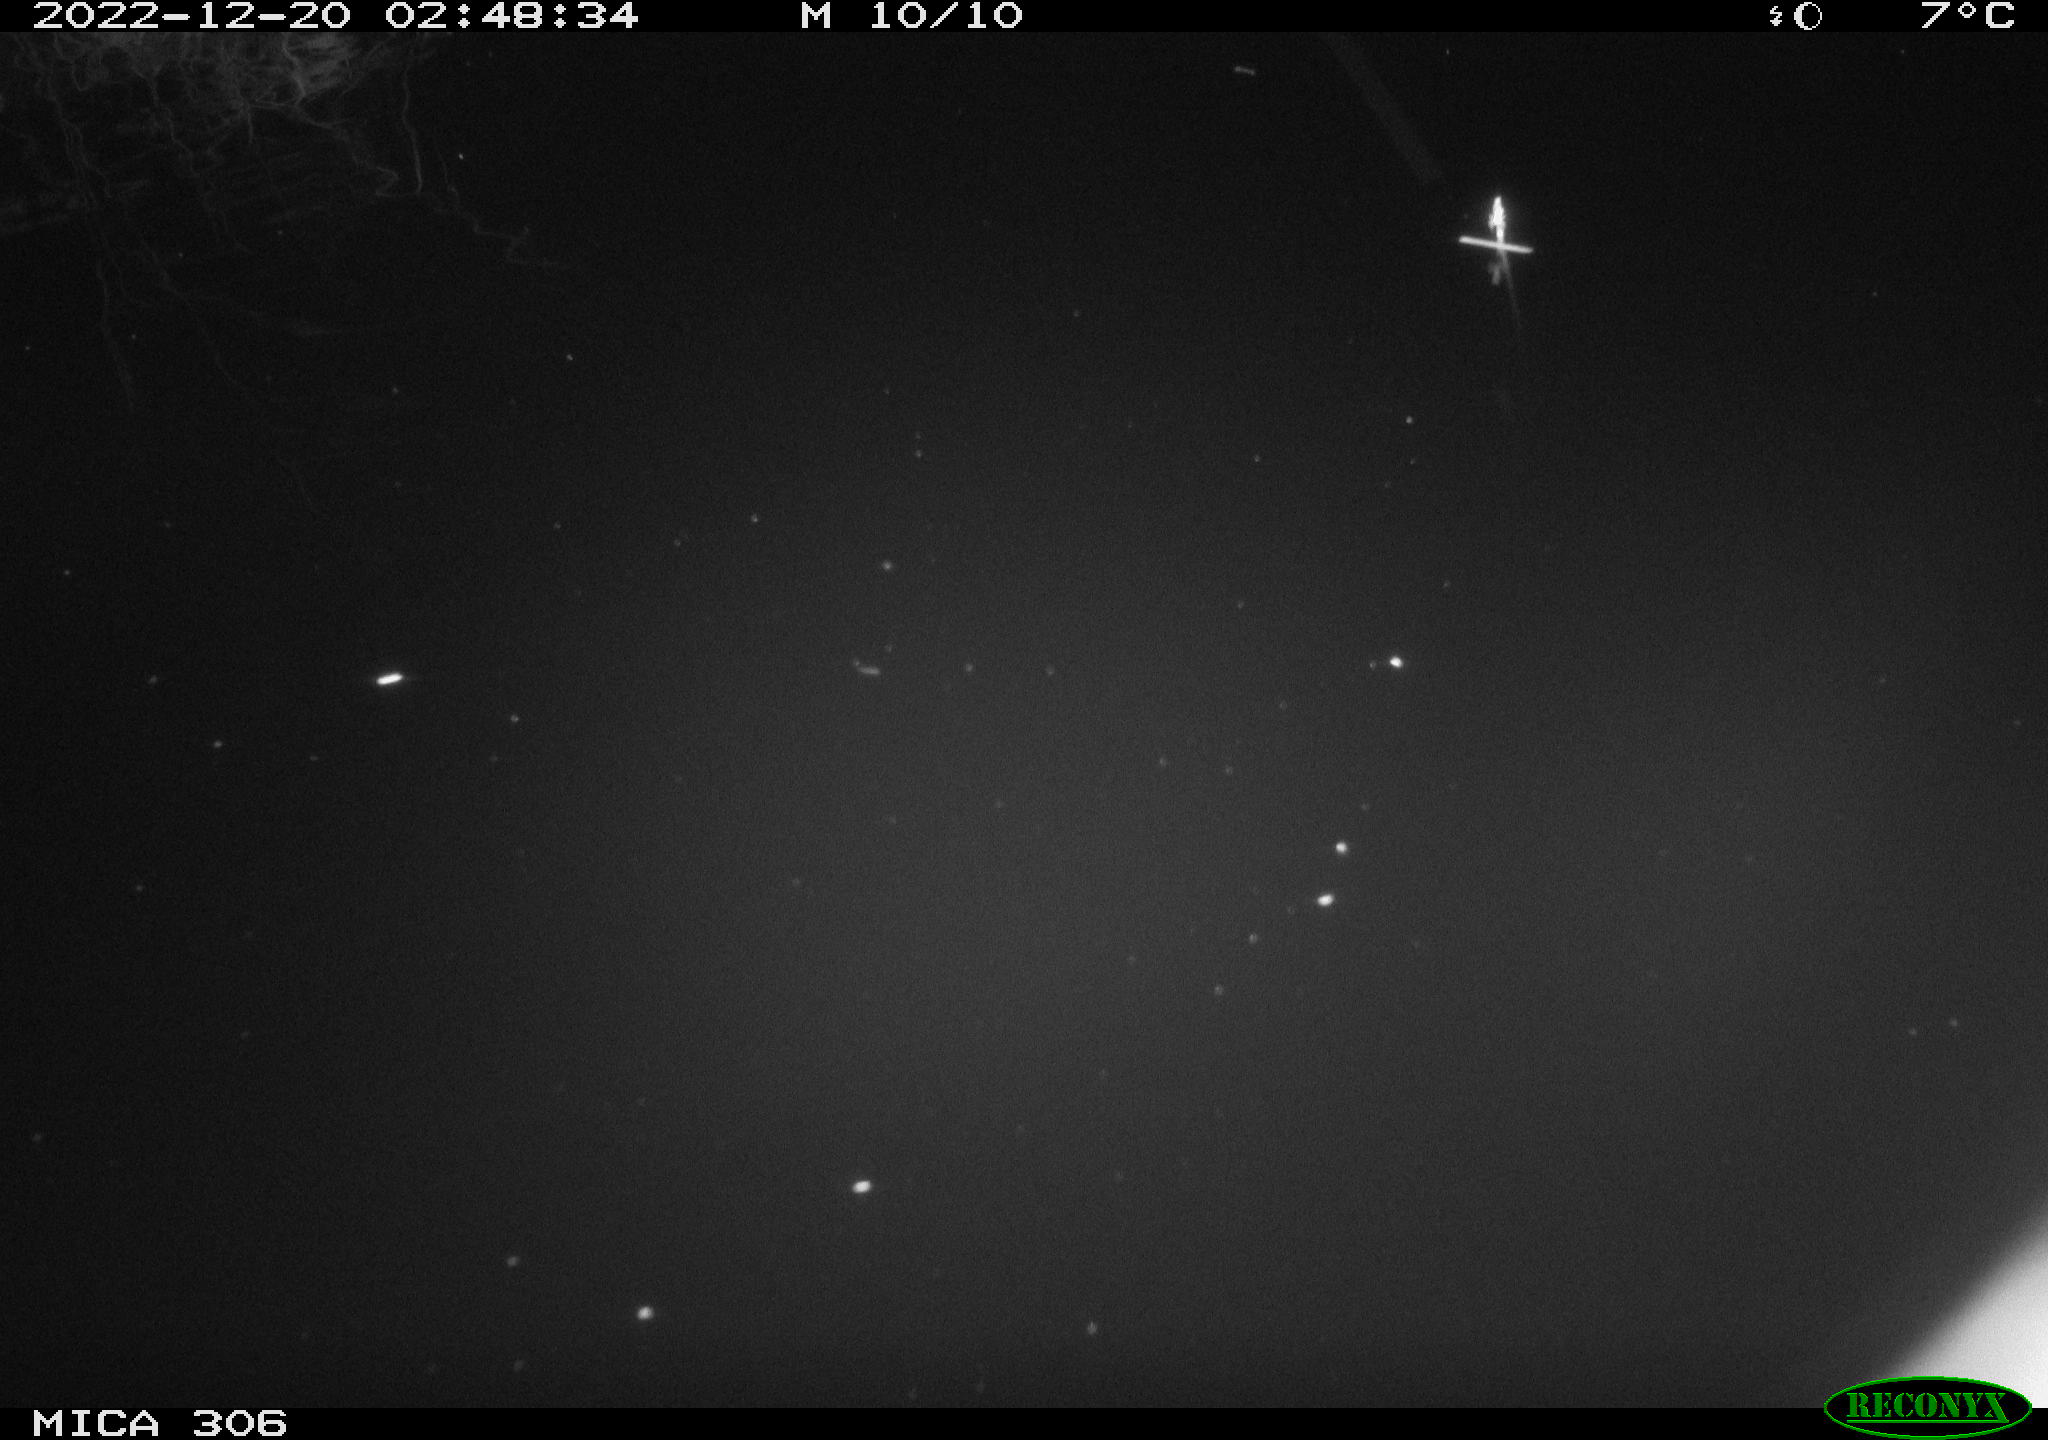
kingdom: Animalia
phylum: Chordata
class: Mammalia
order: Rodentia
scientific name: Rodentia
